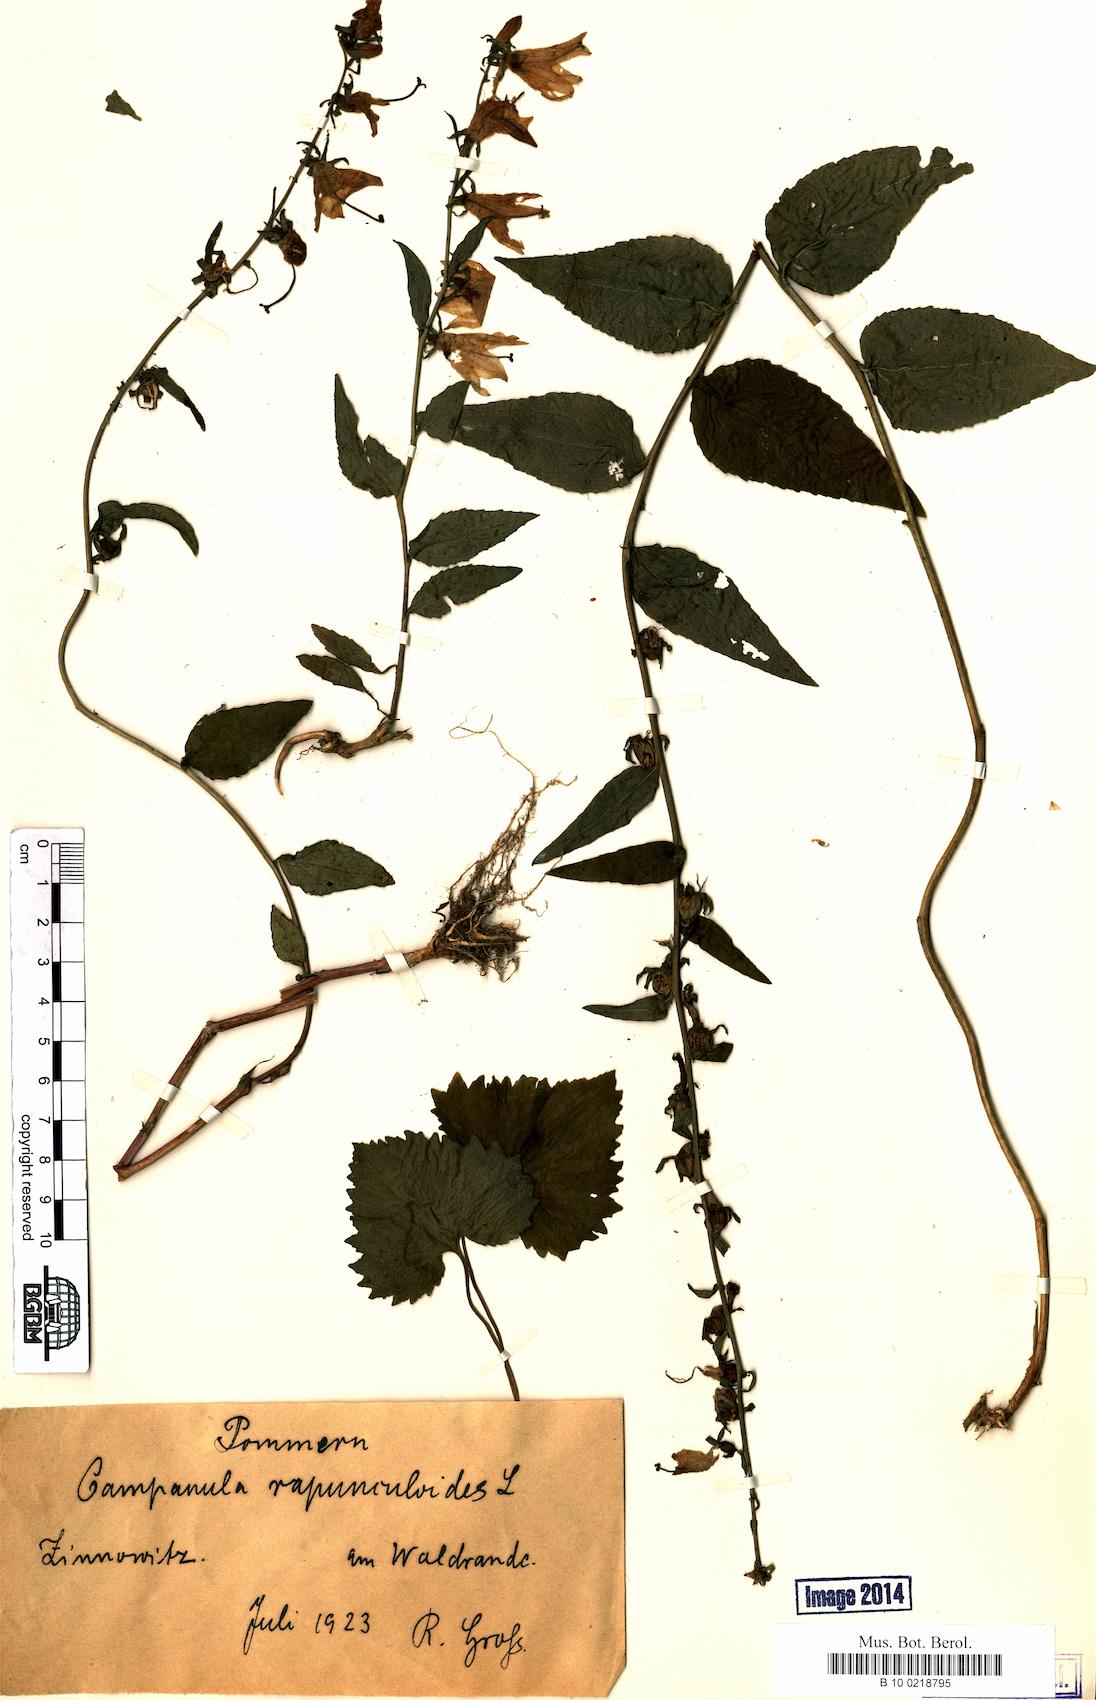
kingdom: Plantae
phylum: Tracheophyta
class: Magnoliopsida
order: Asterales
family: Campanulaceae
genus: Campanula
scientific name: Campanula rapunculoides
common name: Creeping bellflower
